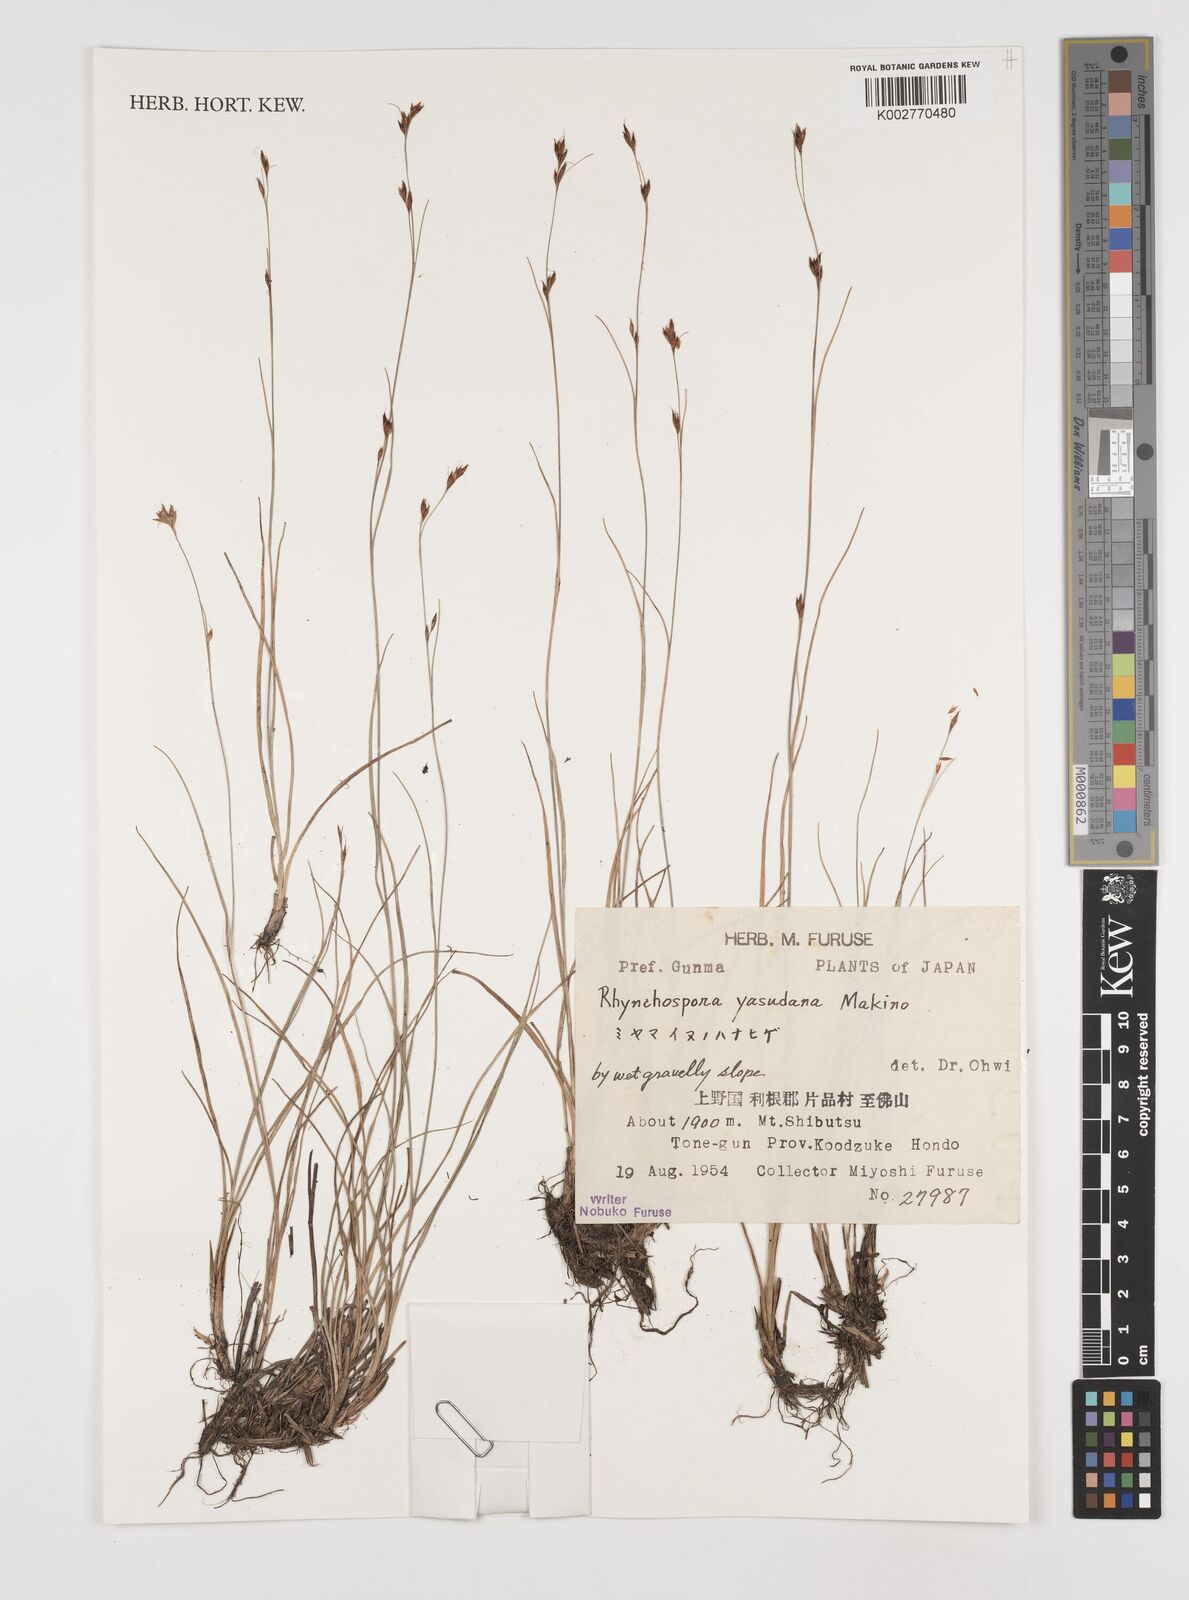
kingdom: Plantae
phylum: Tracheophyta
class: Liliopsida
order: Poales
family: Cyperaceae
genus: Rhynchospora
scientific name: Rhynchospora fujiiana
